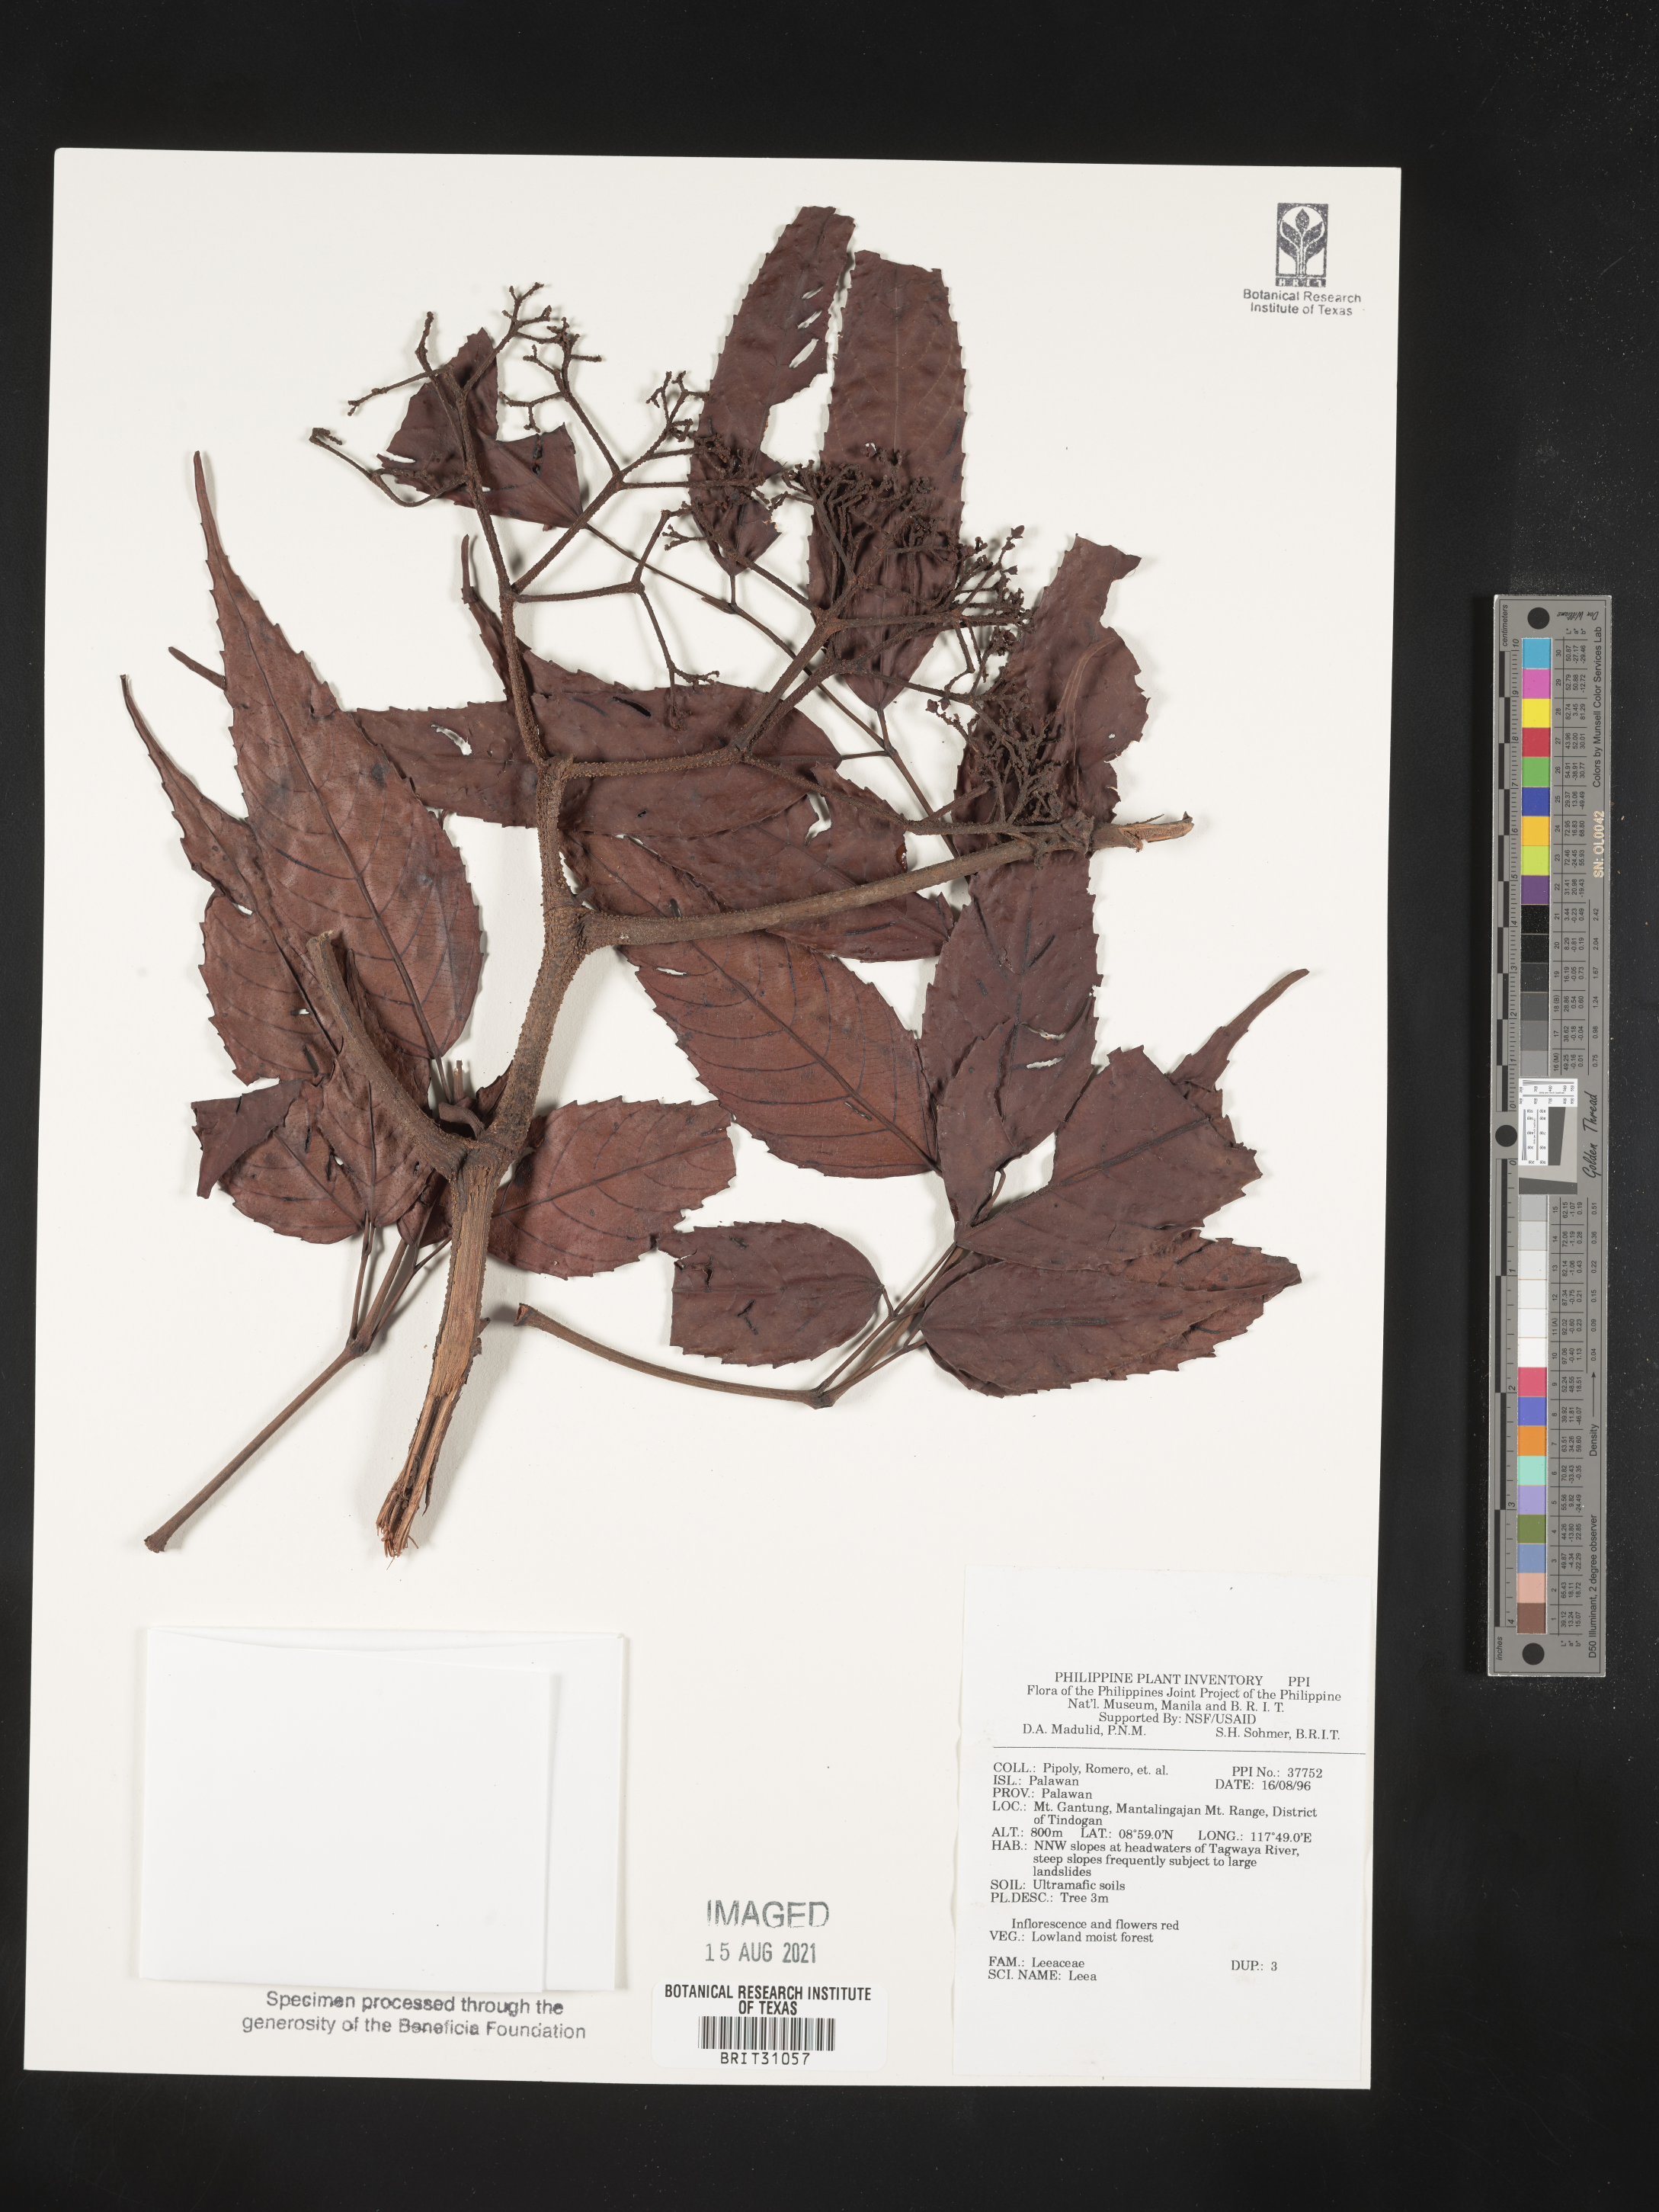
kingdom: Plantae
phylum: Tracheophyta
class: Magnoliopsida
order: Vitales
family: Vitaceae
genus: Leea
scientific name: Leea
